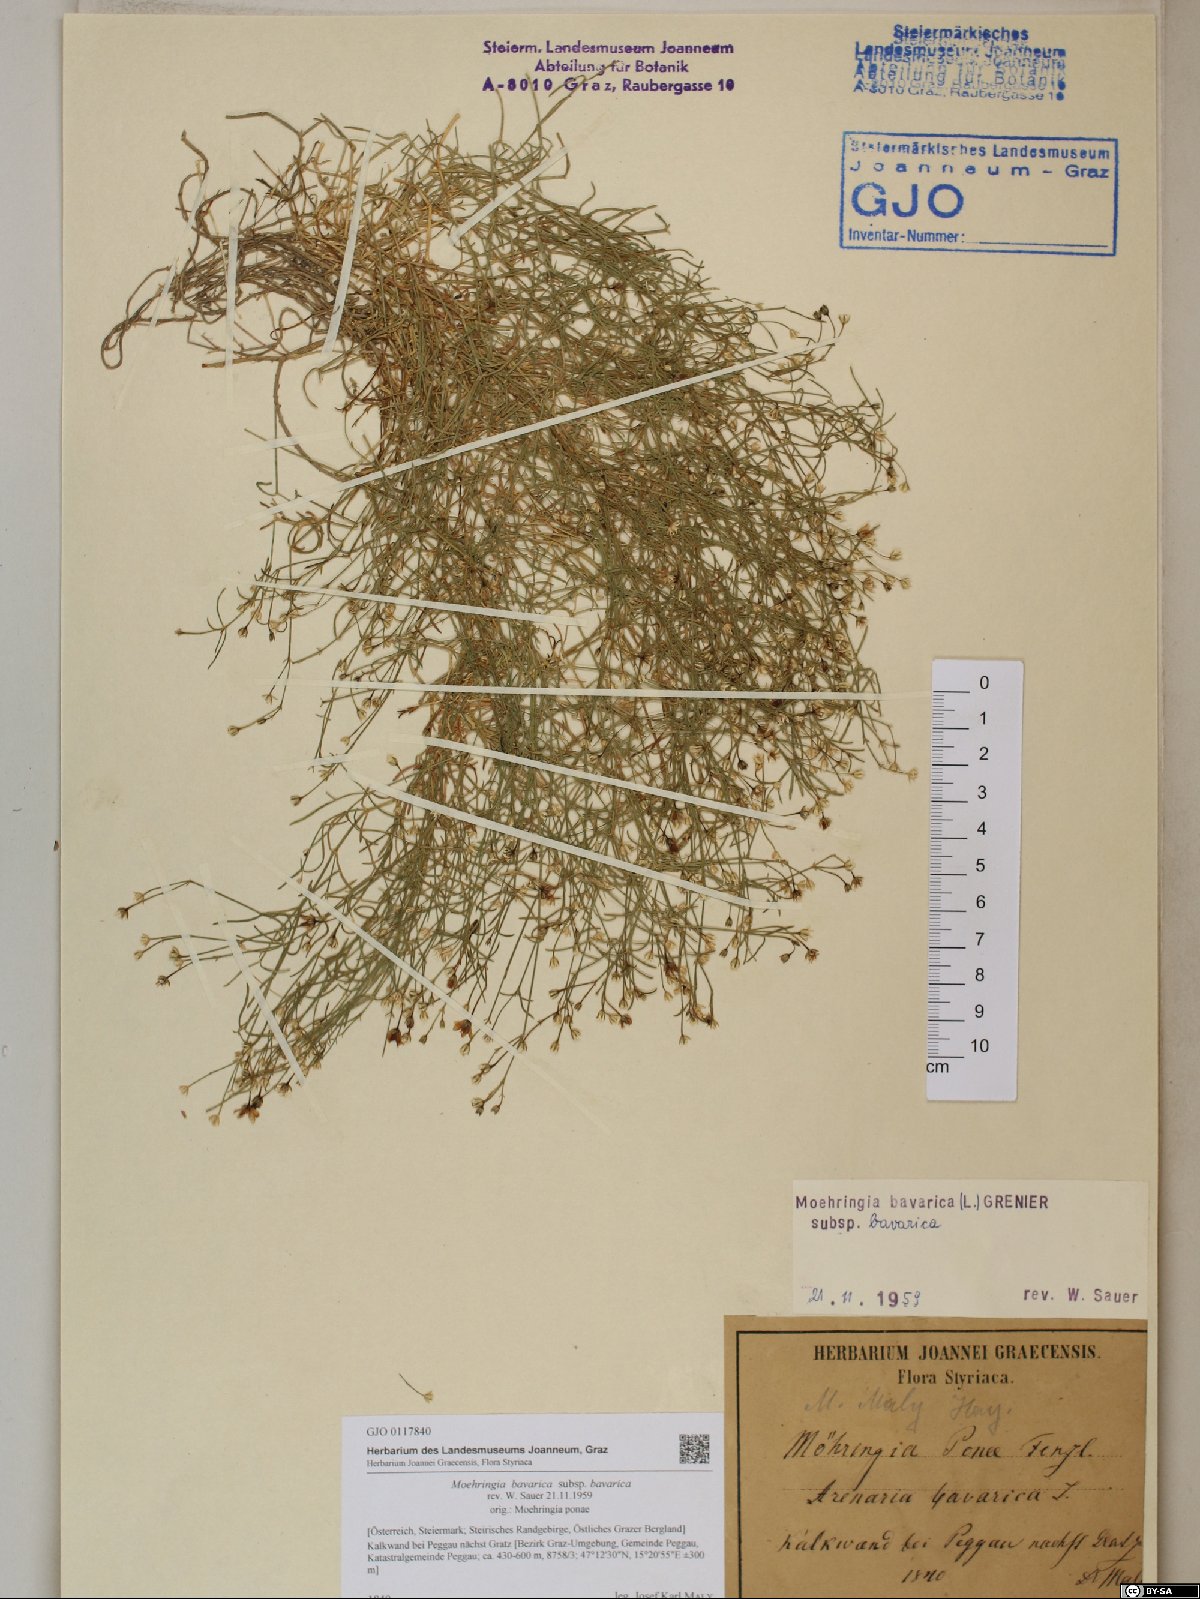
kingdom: Plantae
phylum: Tracheophyta
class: Magnoliopsida
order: Caryophyllales
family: Caryophyllaceae
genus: Moehringia
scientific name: Moehringia bavarica
